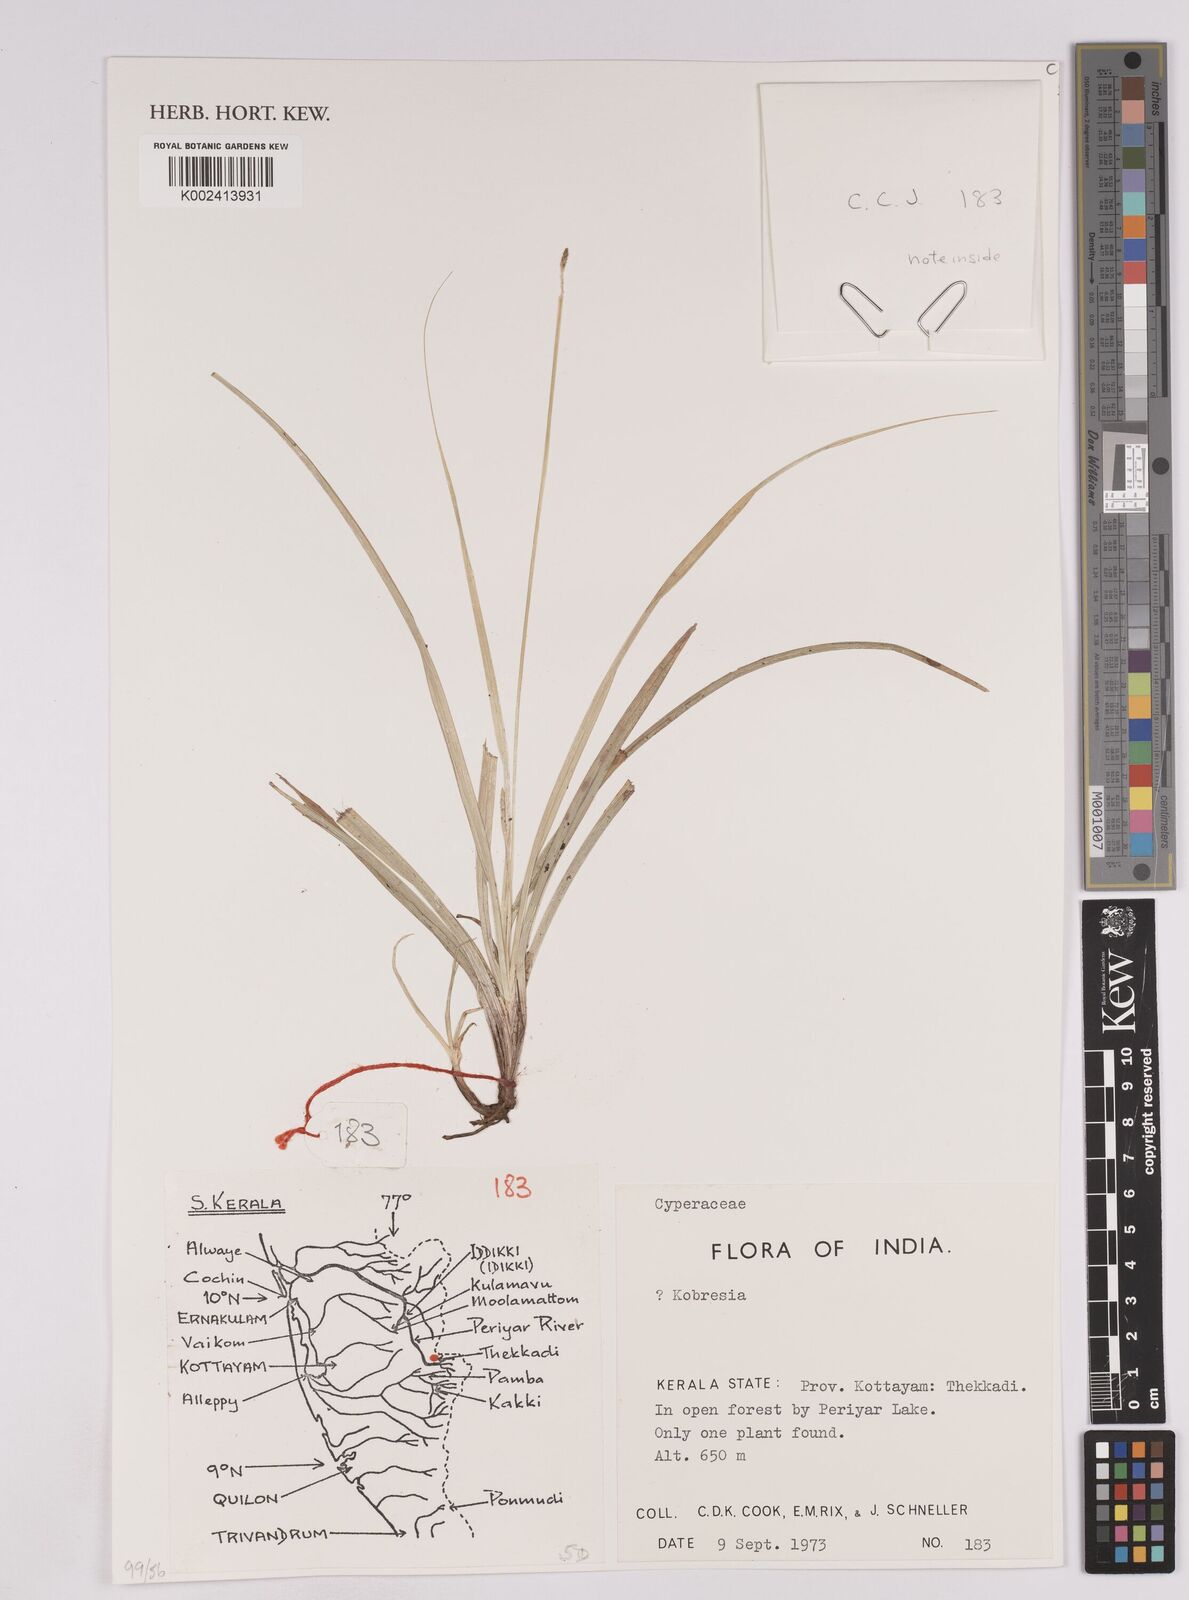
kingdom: Plantae
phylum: Tracheophyta
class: Liliopsida
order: Poales
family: Cyperaceae
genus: Carex
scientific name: Carex
